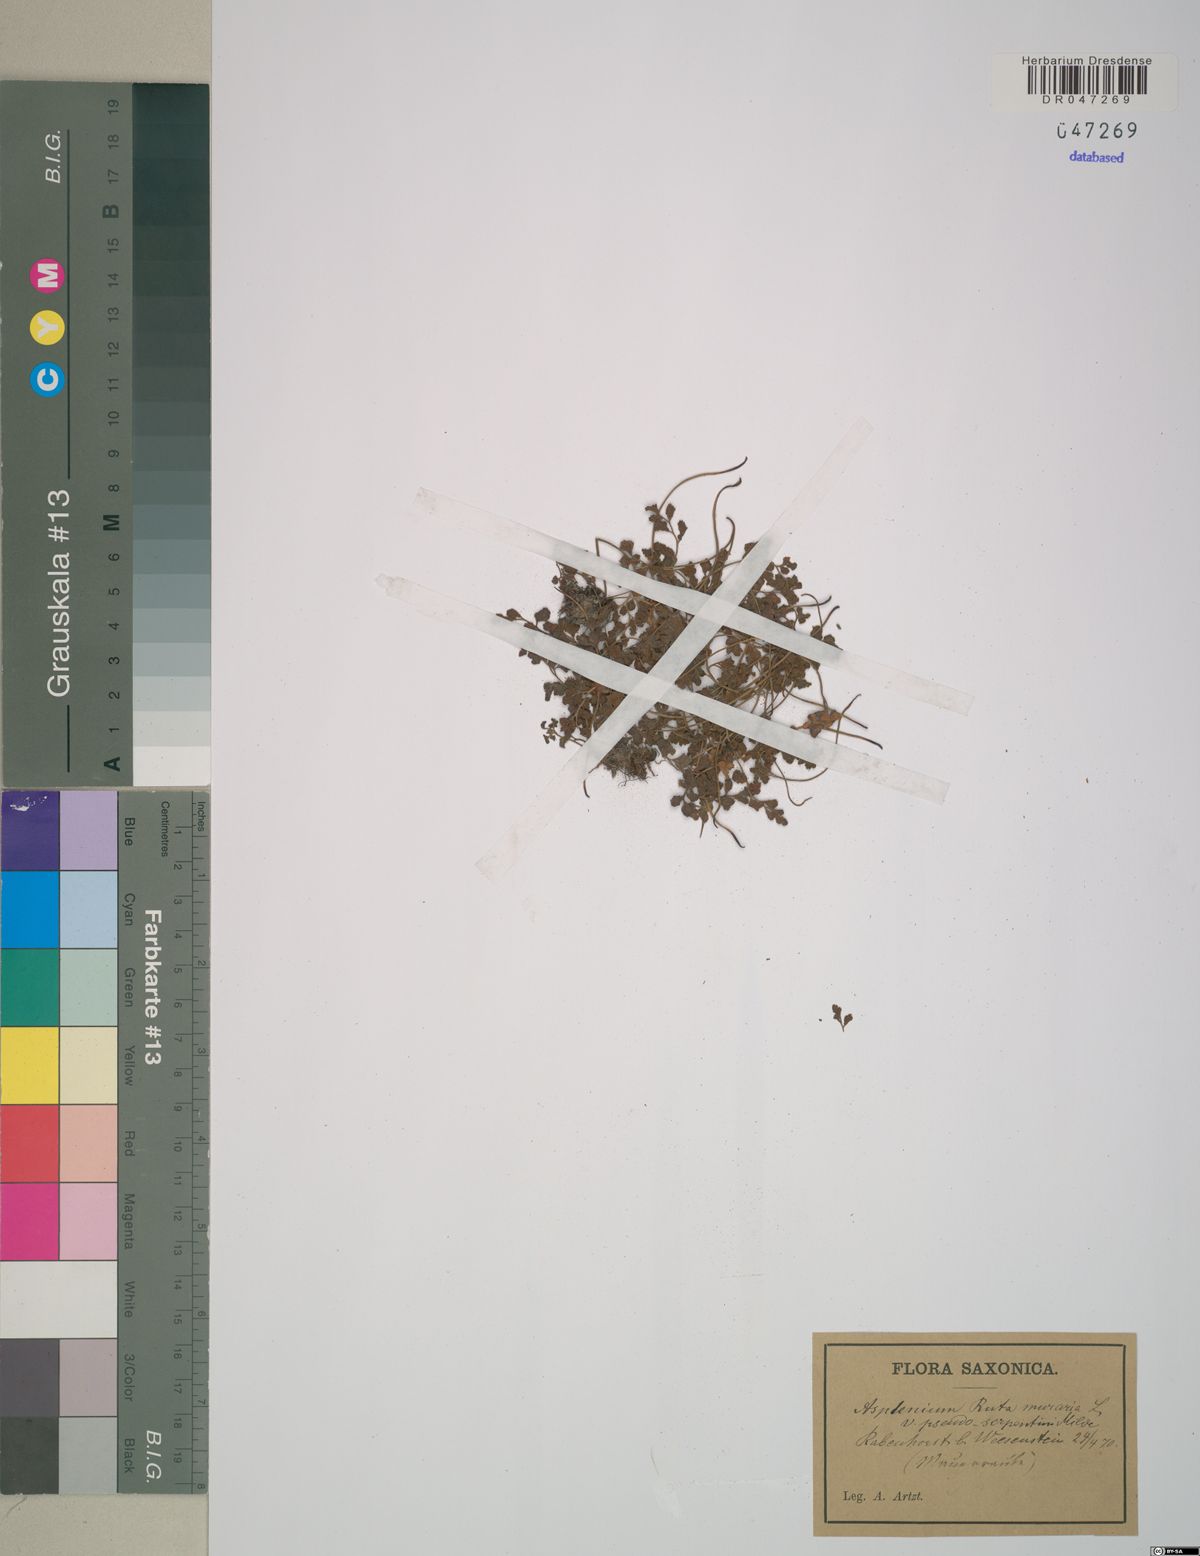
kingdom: Plantae
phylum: Tracheophyta
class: Polypodiopsida
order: Polypodiales
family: Aspleniaceae
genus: Asplenium
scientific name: Asplenium ruta-muraria
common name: Wall-rue
